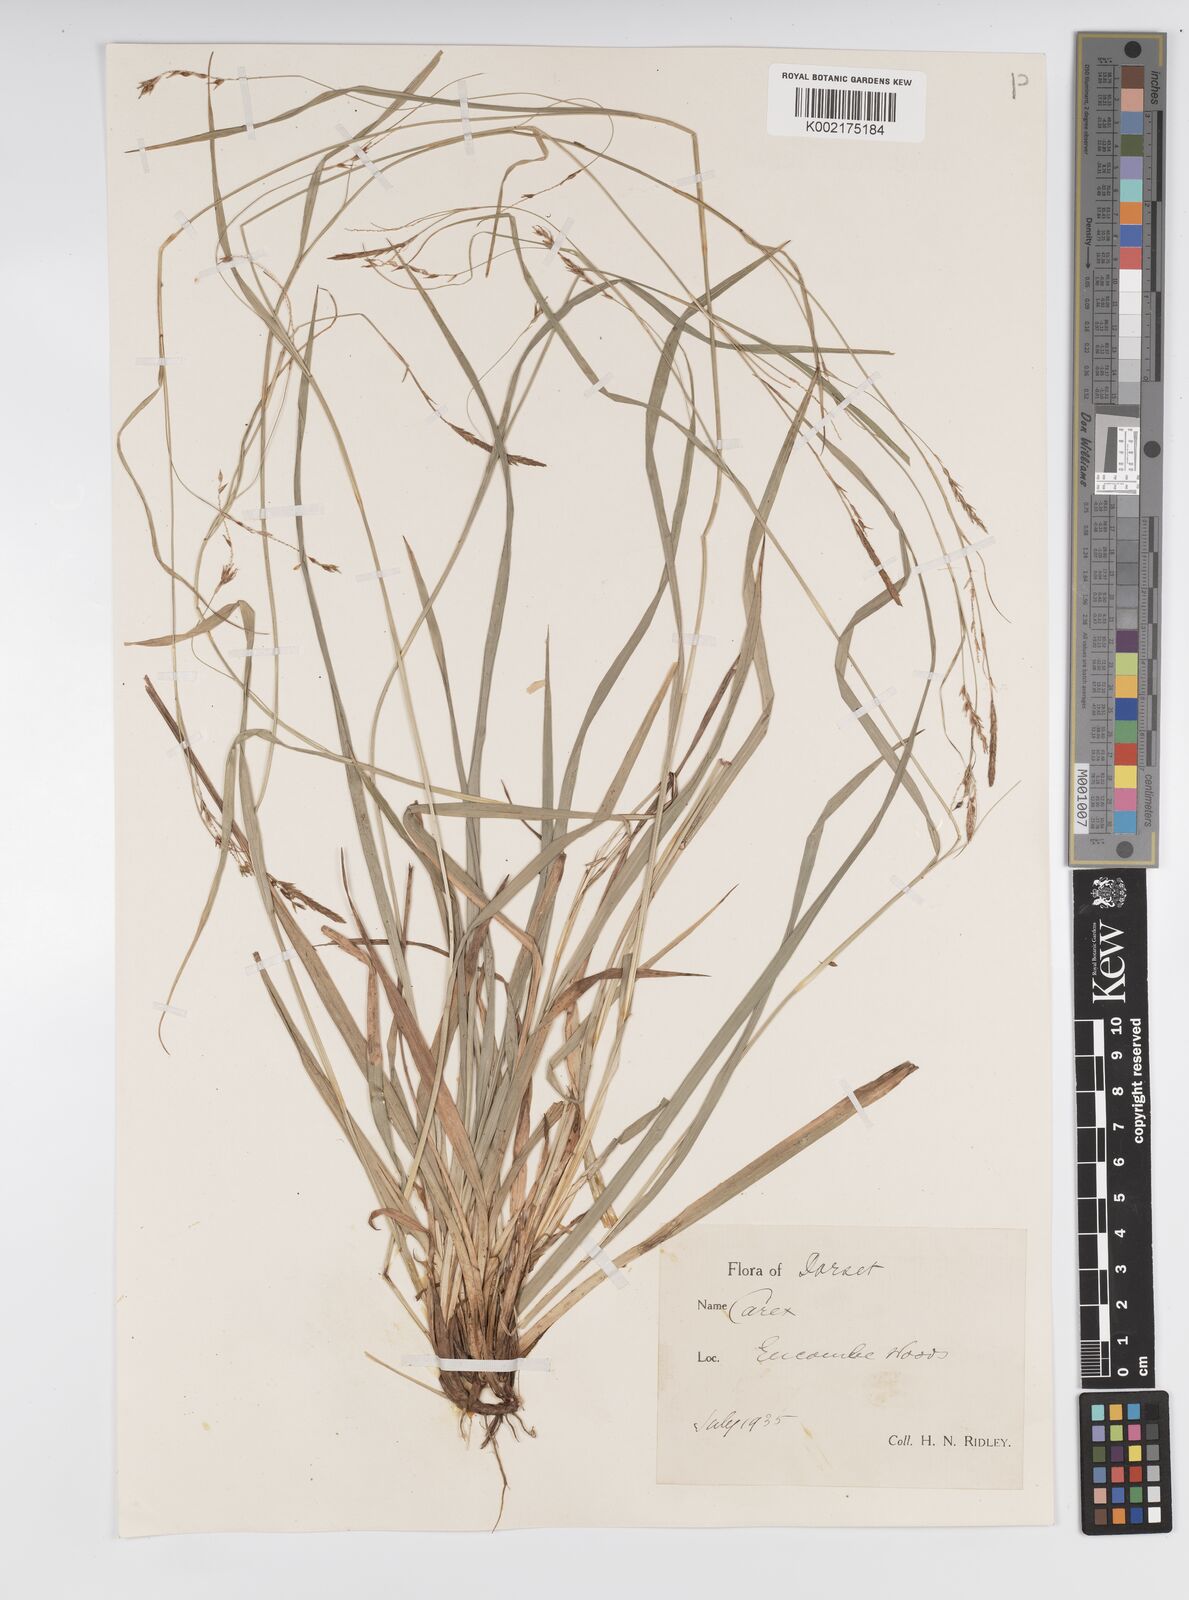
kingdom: Plantae
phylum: Tracheophyta
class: Liliopsida
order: Poales
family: Cyperaceae
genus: Carex
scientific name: Carex sylvatica
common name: Wood-sedge
